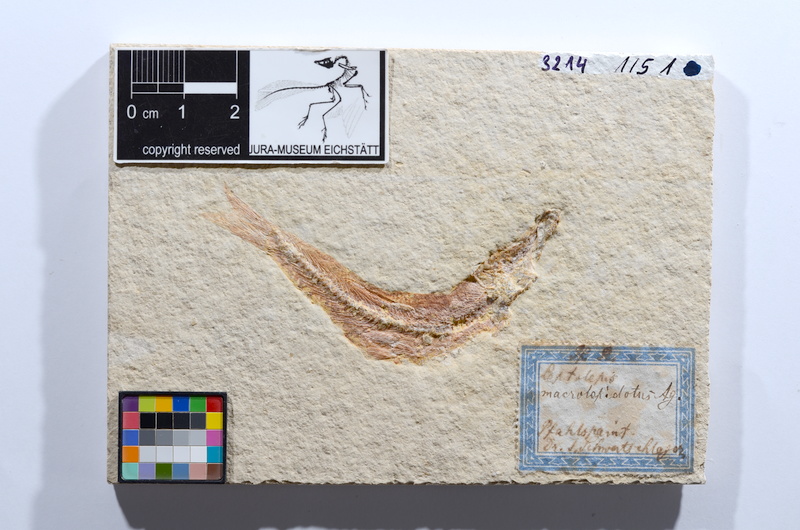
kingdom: Animalia
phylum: Chordata
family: Ascalaboidae
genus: Tharsis
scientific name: Tharsis dubius
